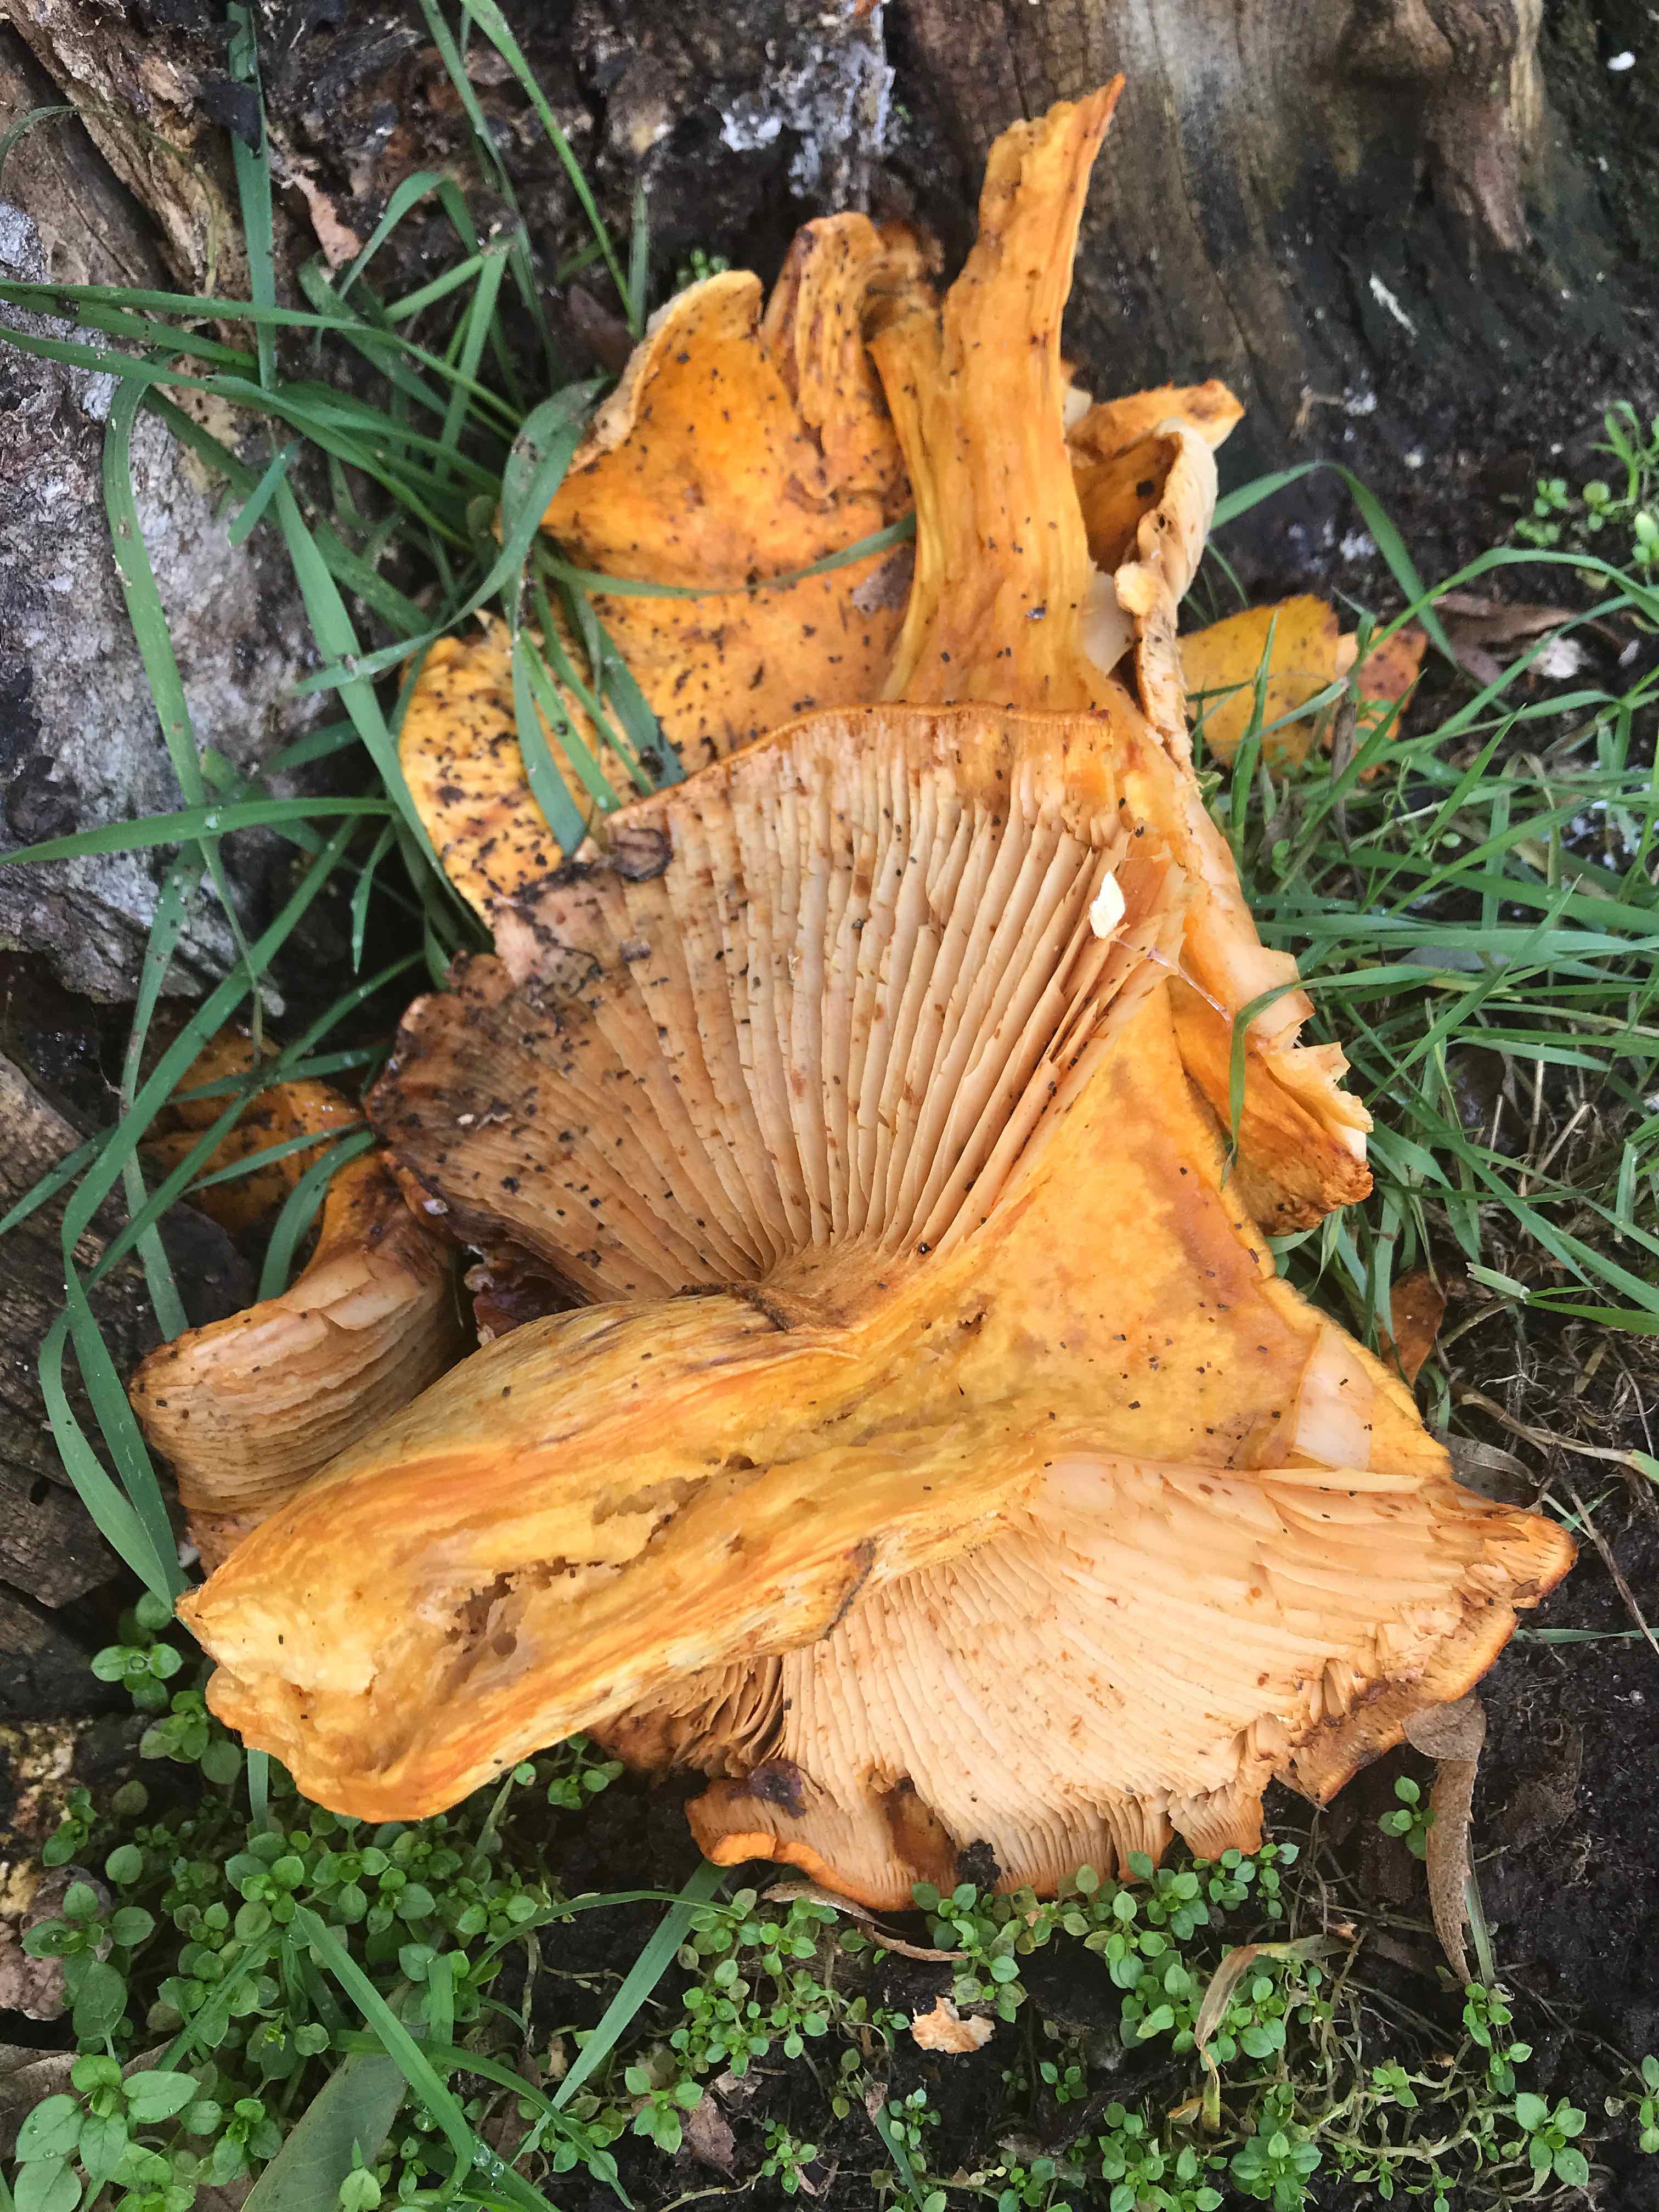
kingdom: Fungi
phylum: Basidiomycota
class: Agaricomycetes
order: Agaricales
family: Hymenogastraceae
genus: Gymnopilus
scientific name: Gymnopilus spectabilis
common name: fibret flammehat
